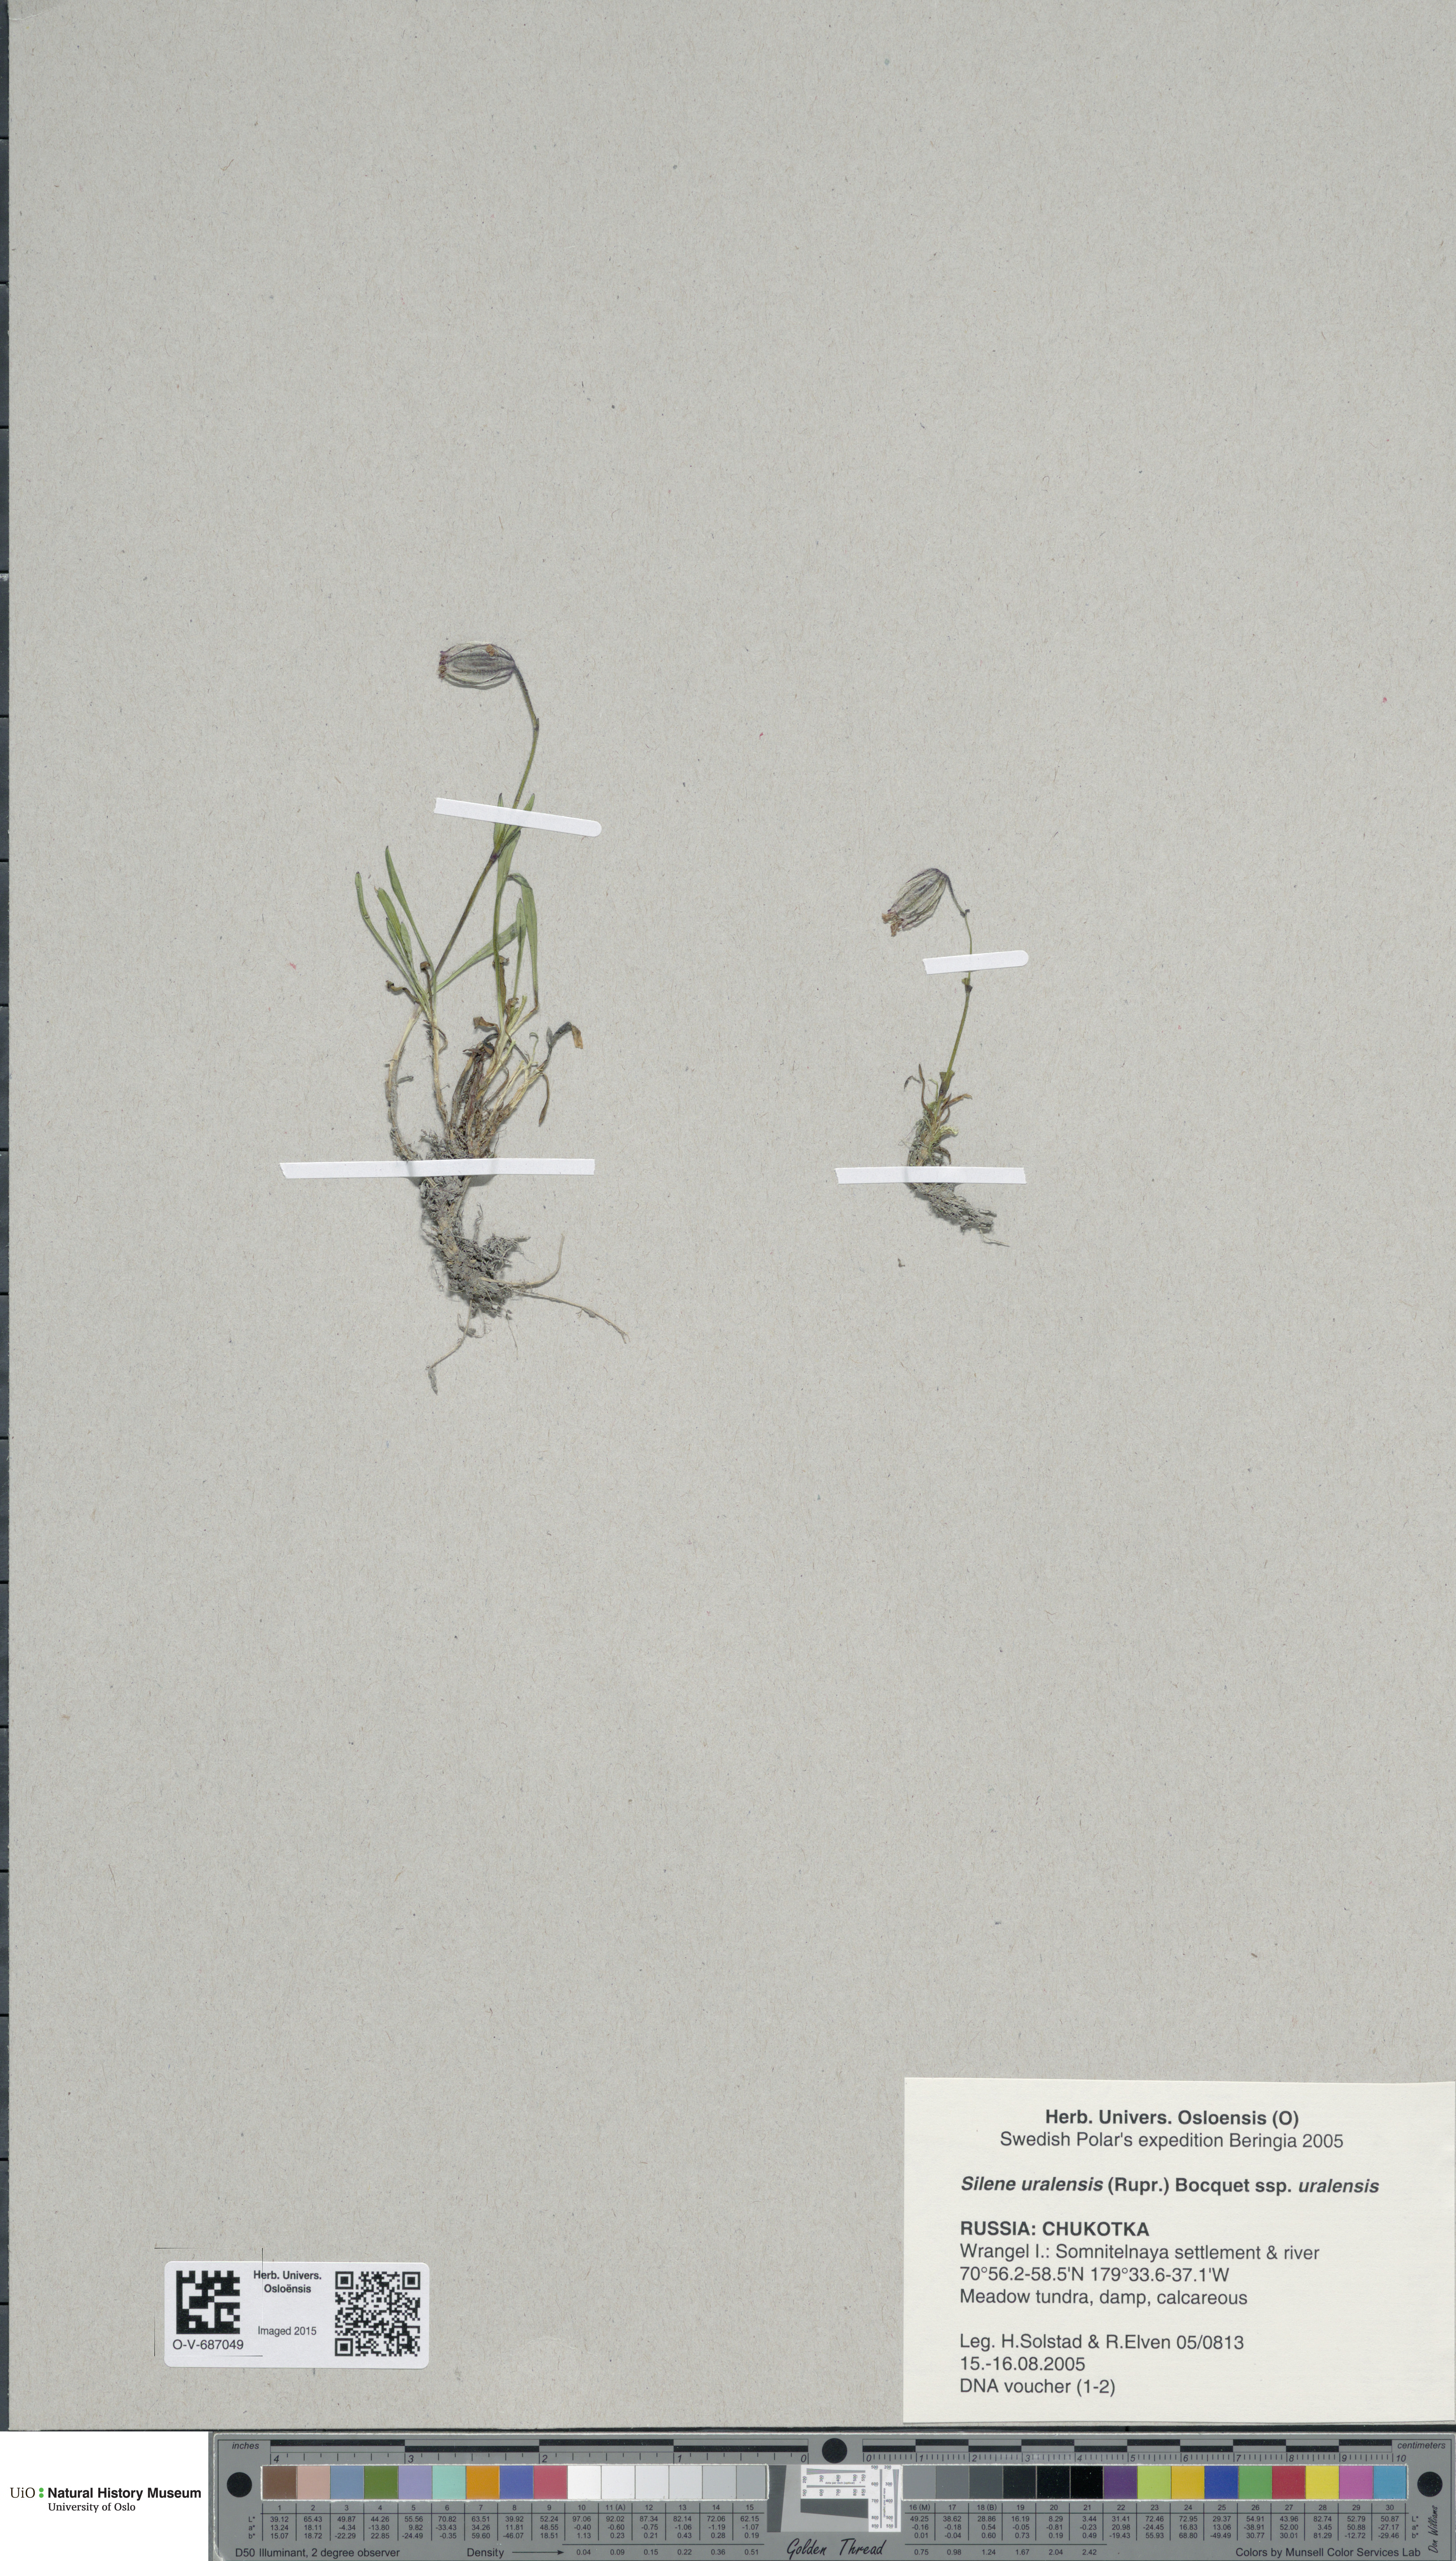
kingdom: Plantae
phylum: Tracheophyta
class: Magnoliopsida
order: Caryophyllales
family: Caryophyllaceae
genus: Silene
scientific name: Silene uralensis
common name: Nodding campion
